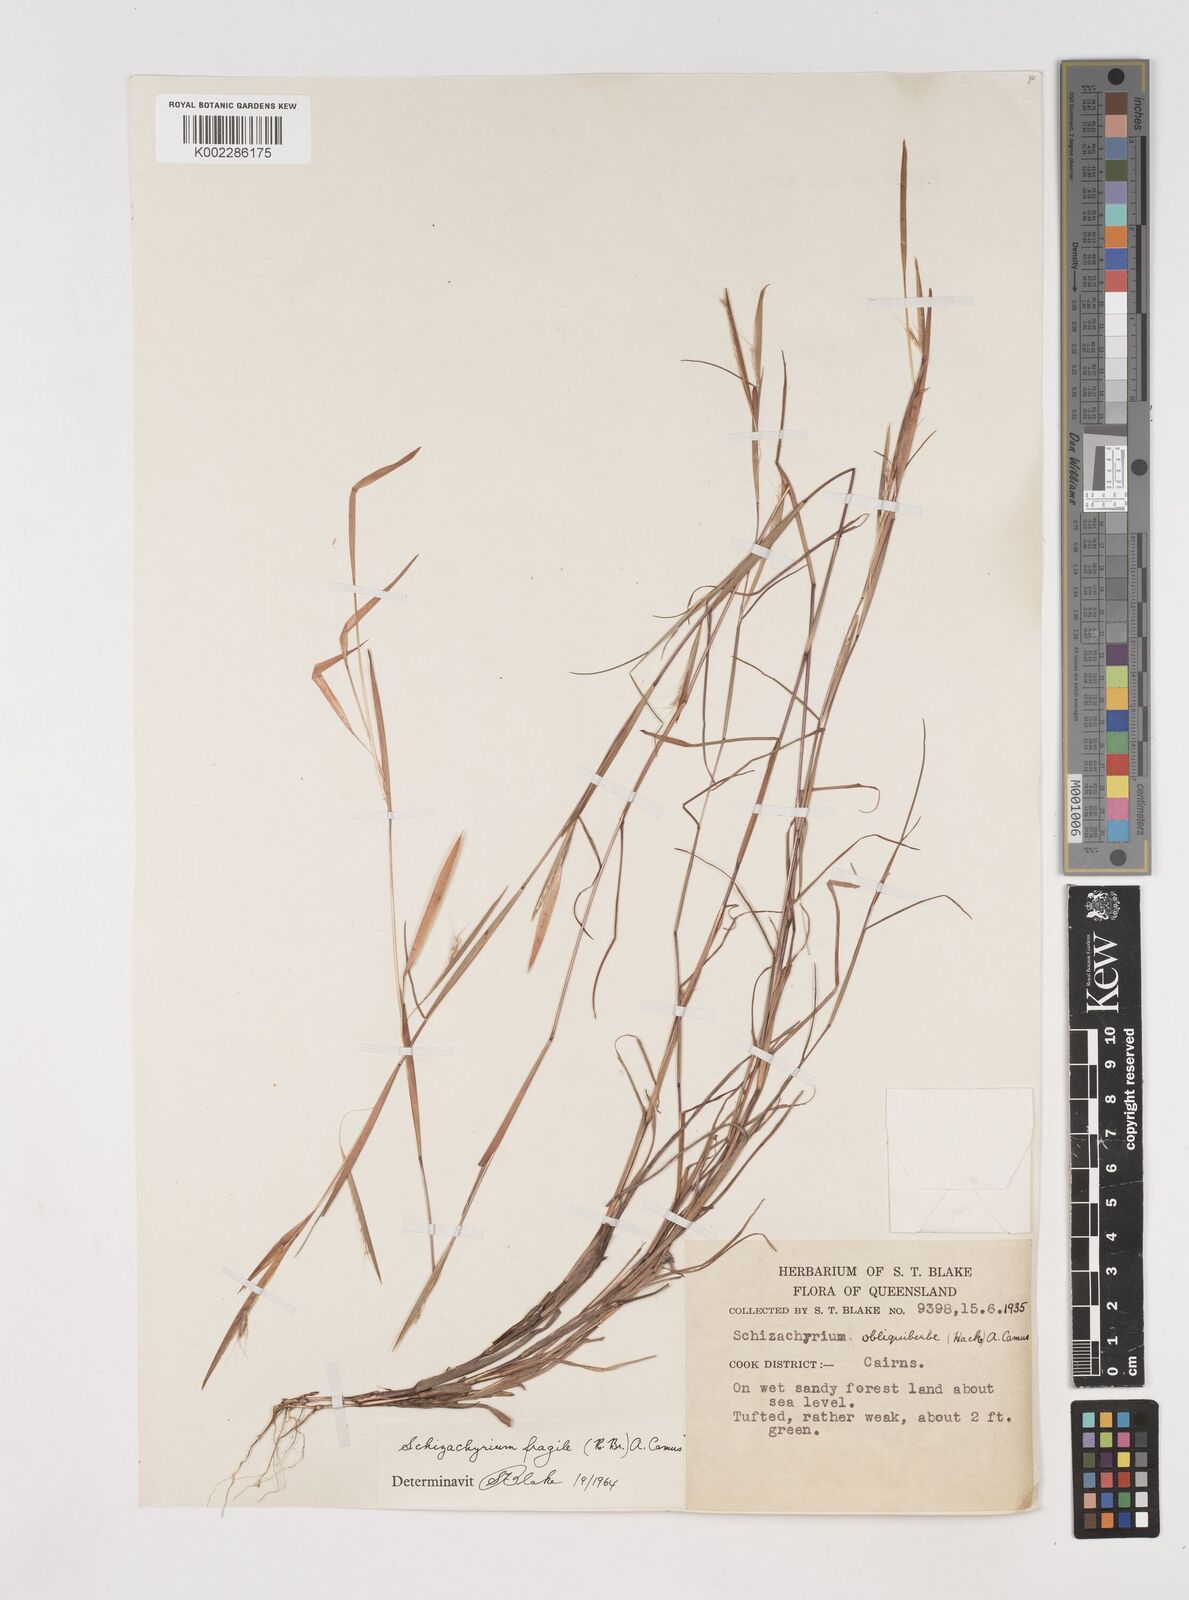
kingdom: Plantae
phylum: Tracheophyta
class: Liliopsida
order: Poales
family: Poaceae
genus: Schizachyrium
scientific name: Schizachyrium fragile
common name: Red spathe grass
